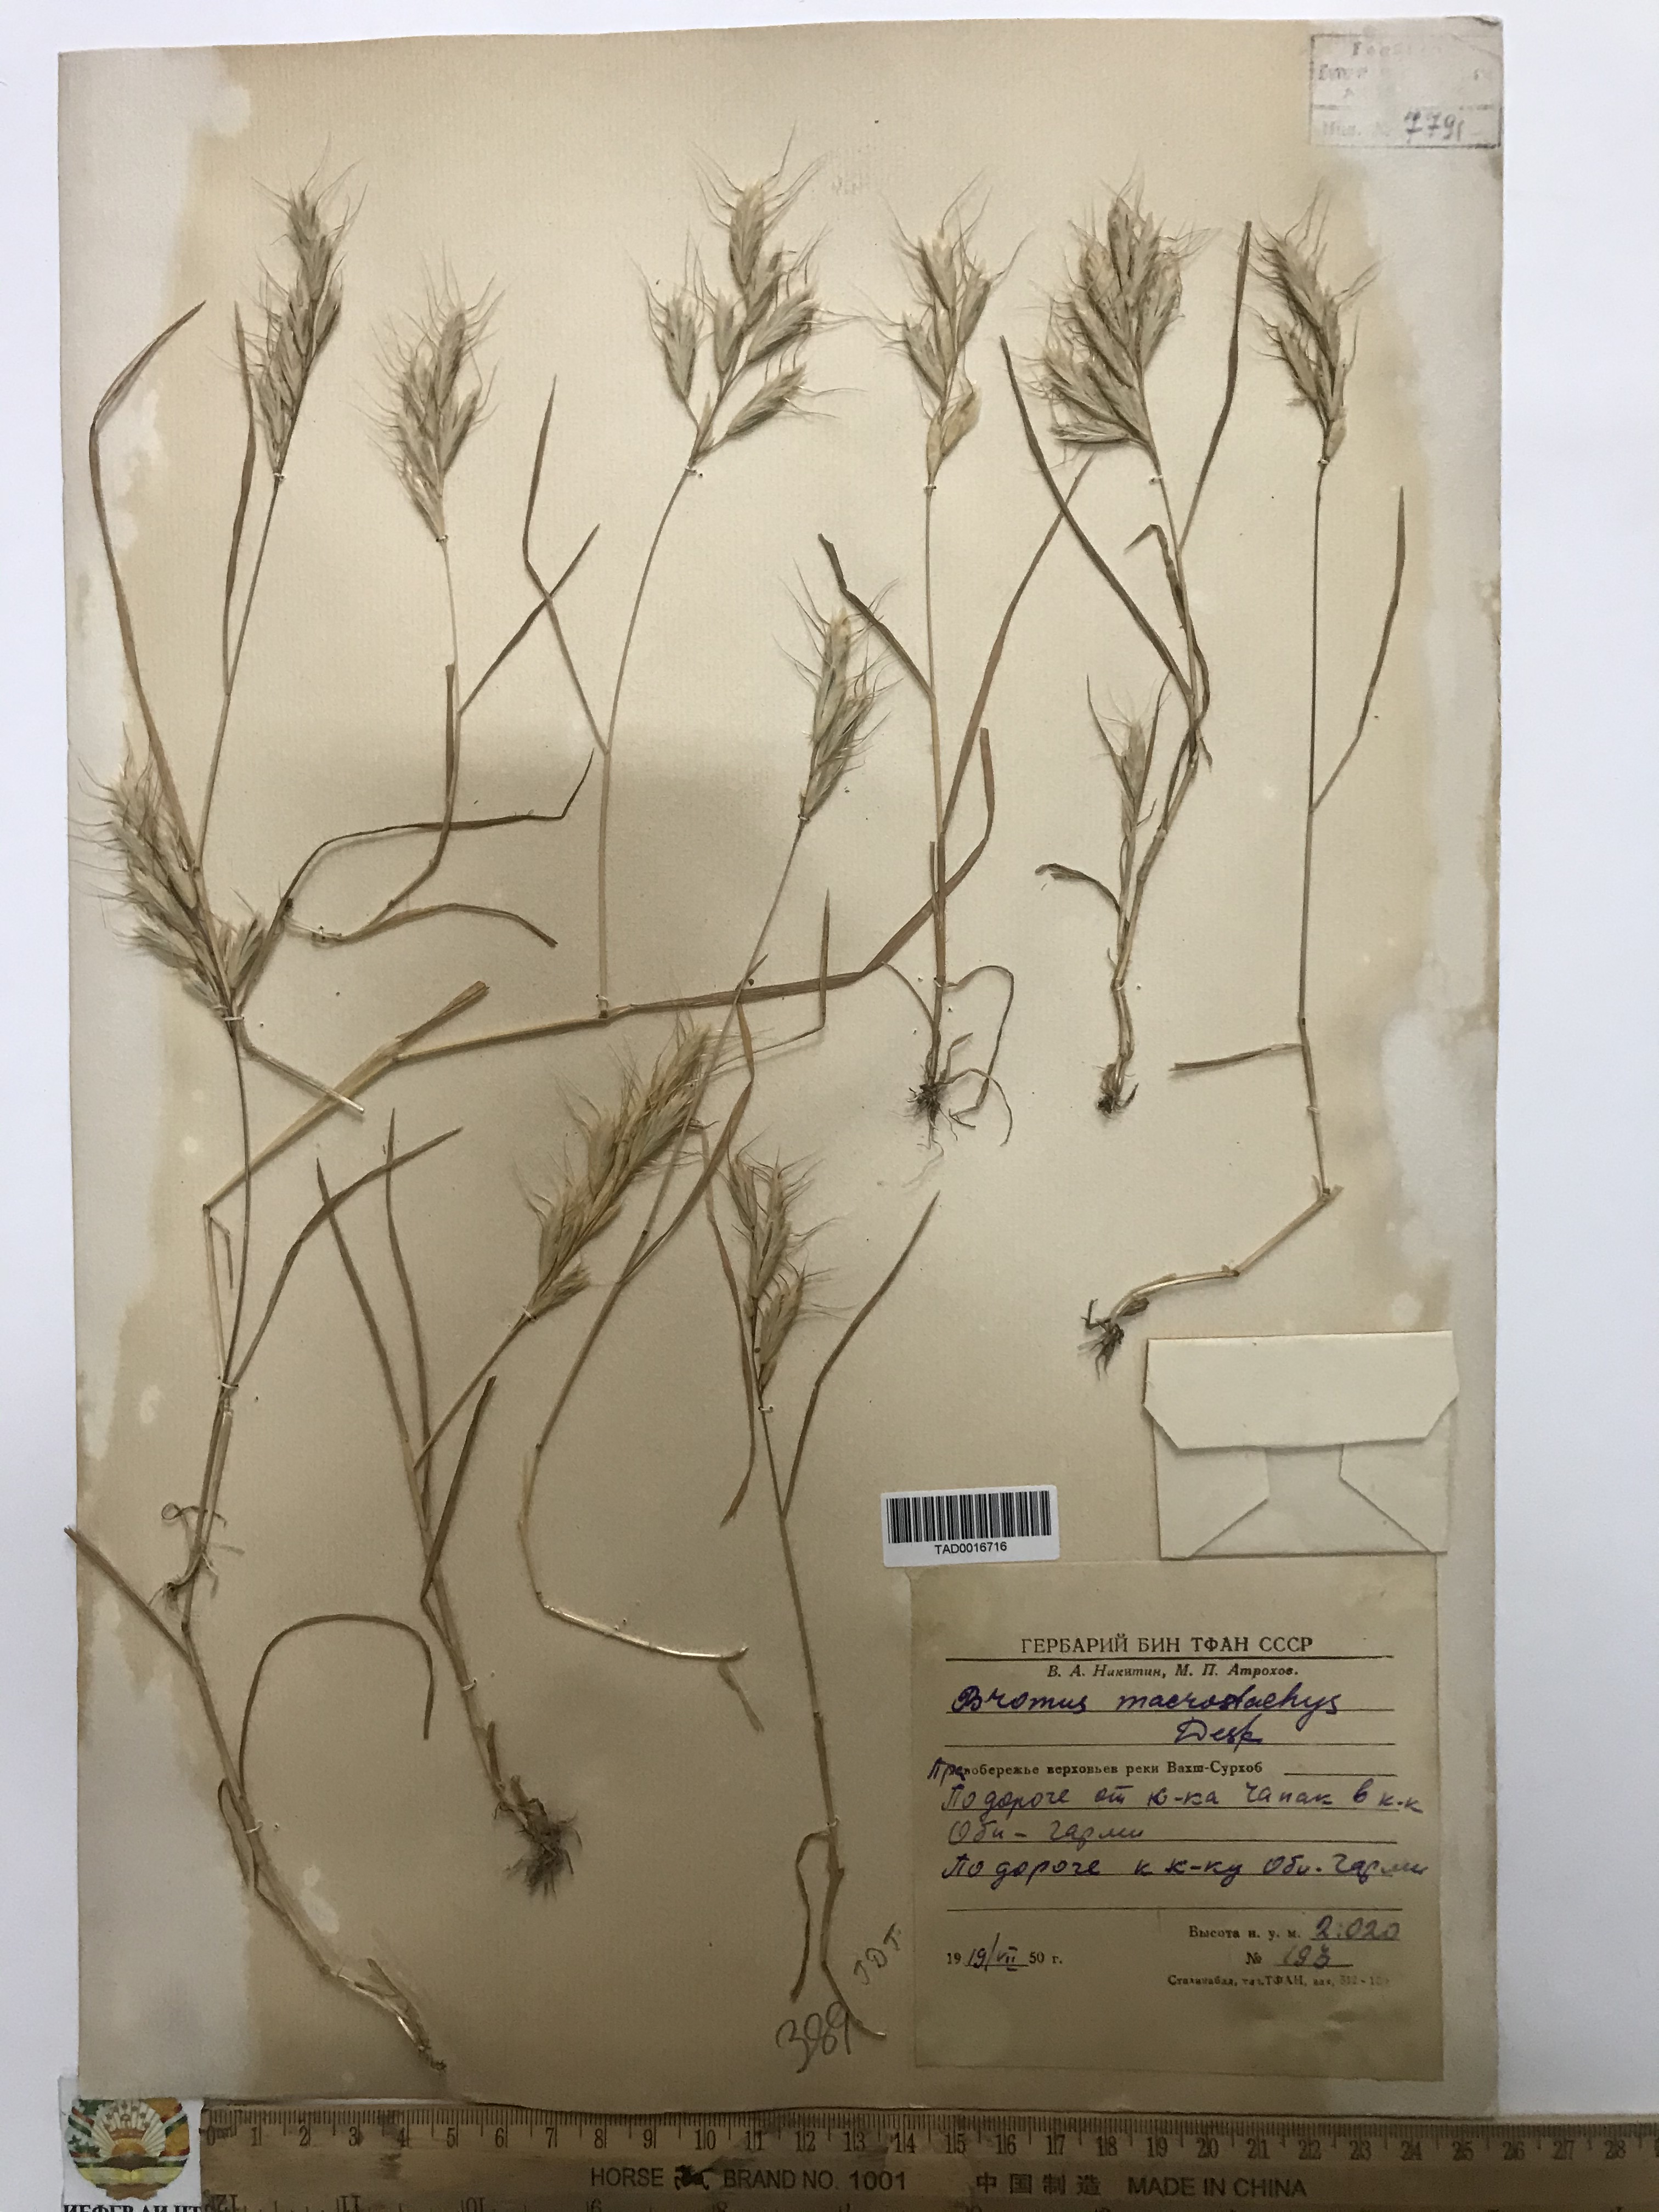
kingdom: Plantae
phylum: Tracheophyta
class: Liliopsida
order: Poales
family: Poaceae
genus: Bromus
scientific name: Bromus lanceolatus
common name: Mediterranean brome
